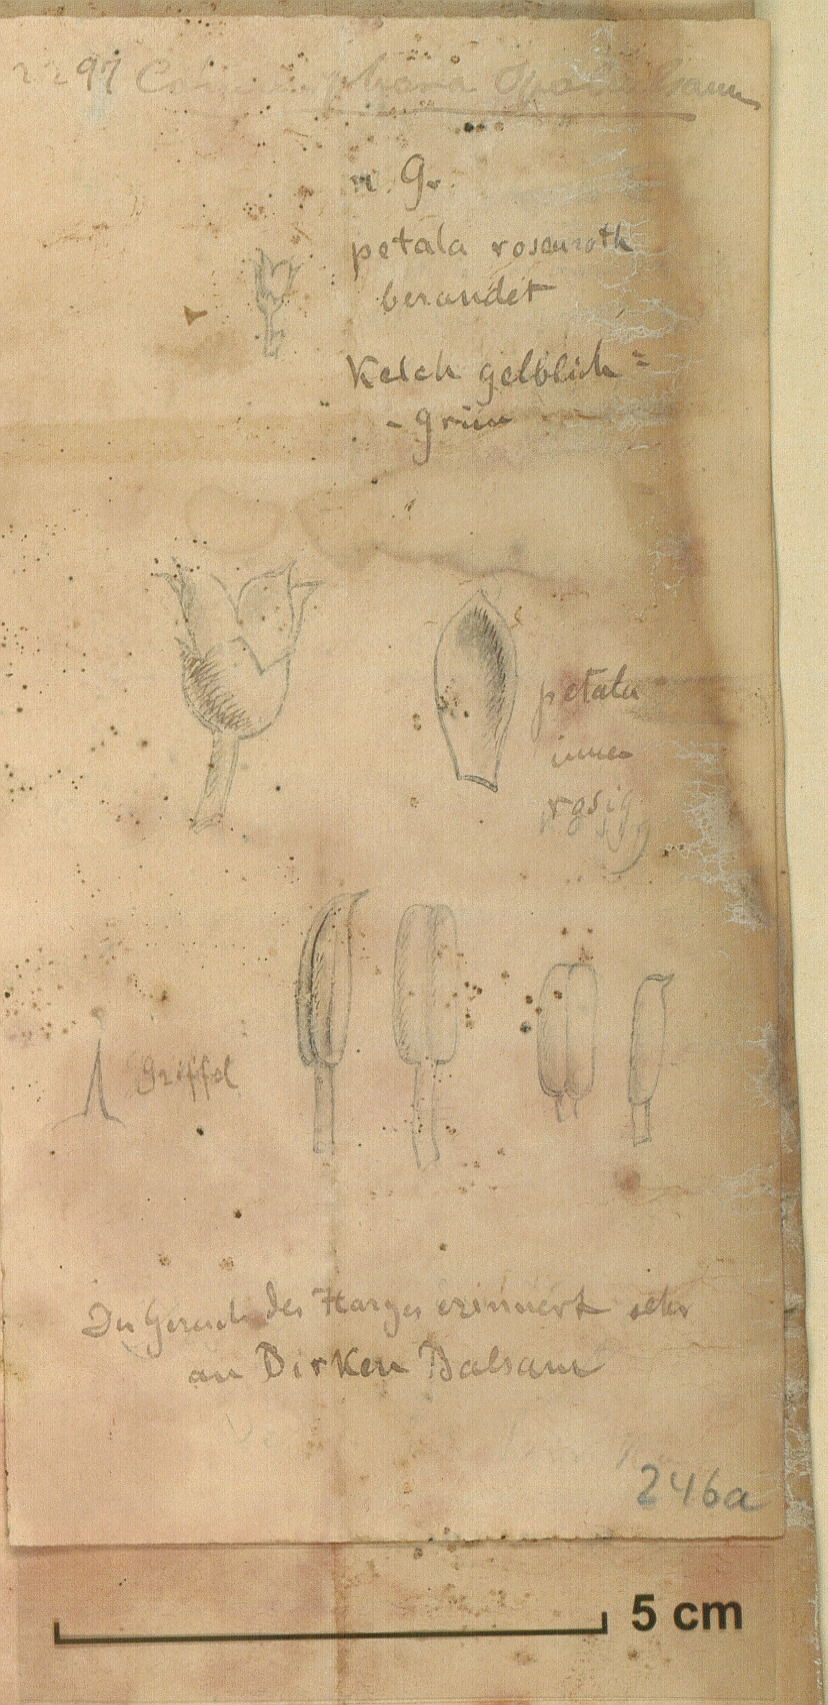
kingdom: Plantae
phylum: Tracheophyta
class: Magnoliopsida
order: Sapindales
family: Burseraceae
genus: Commiphora
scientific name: Commiphora gileadensis
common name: Balm-of-gilead
